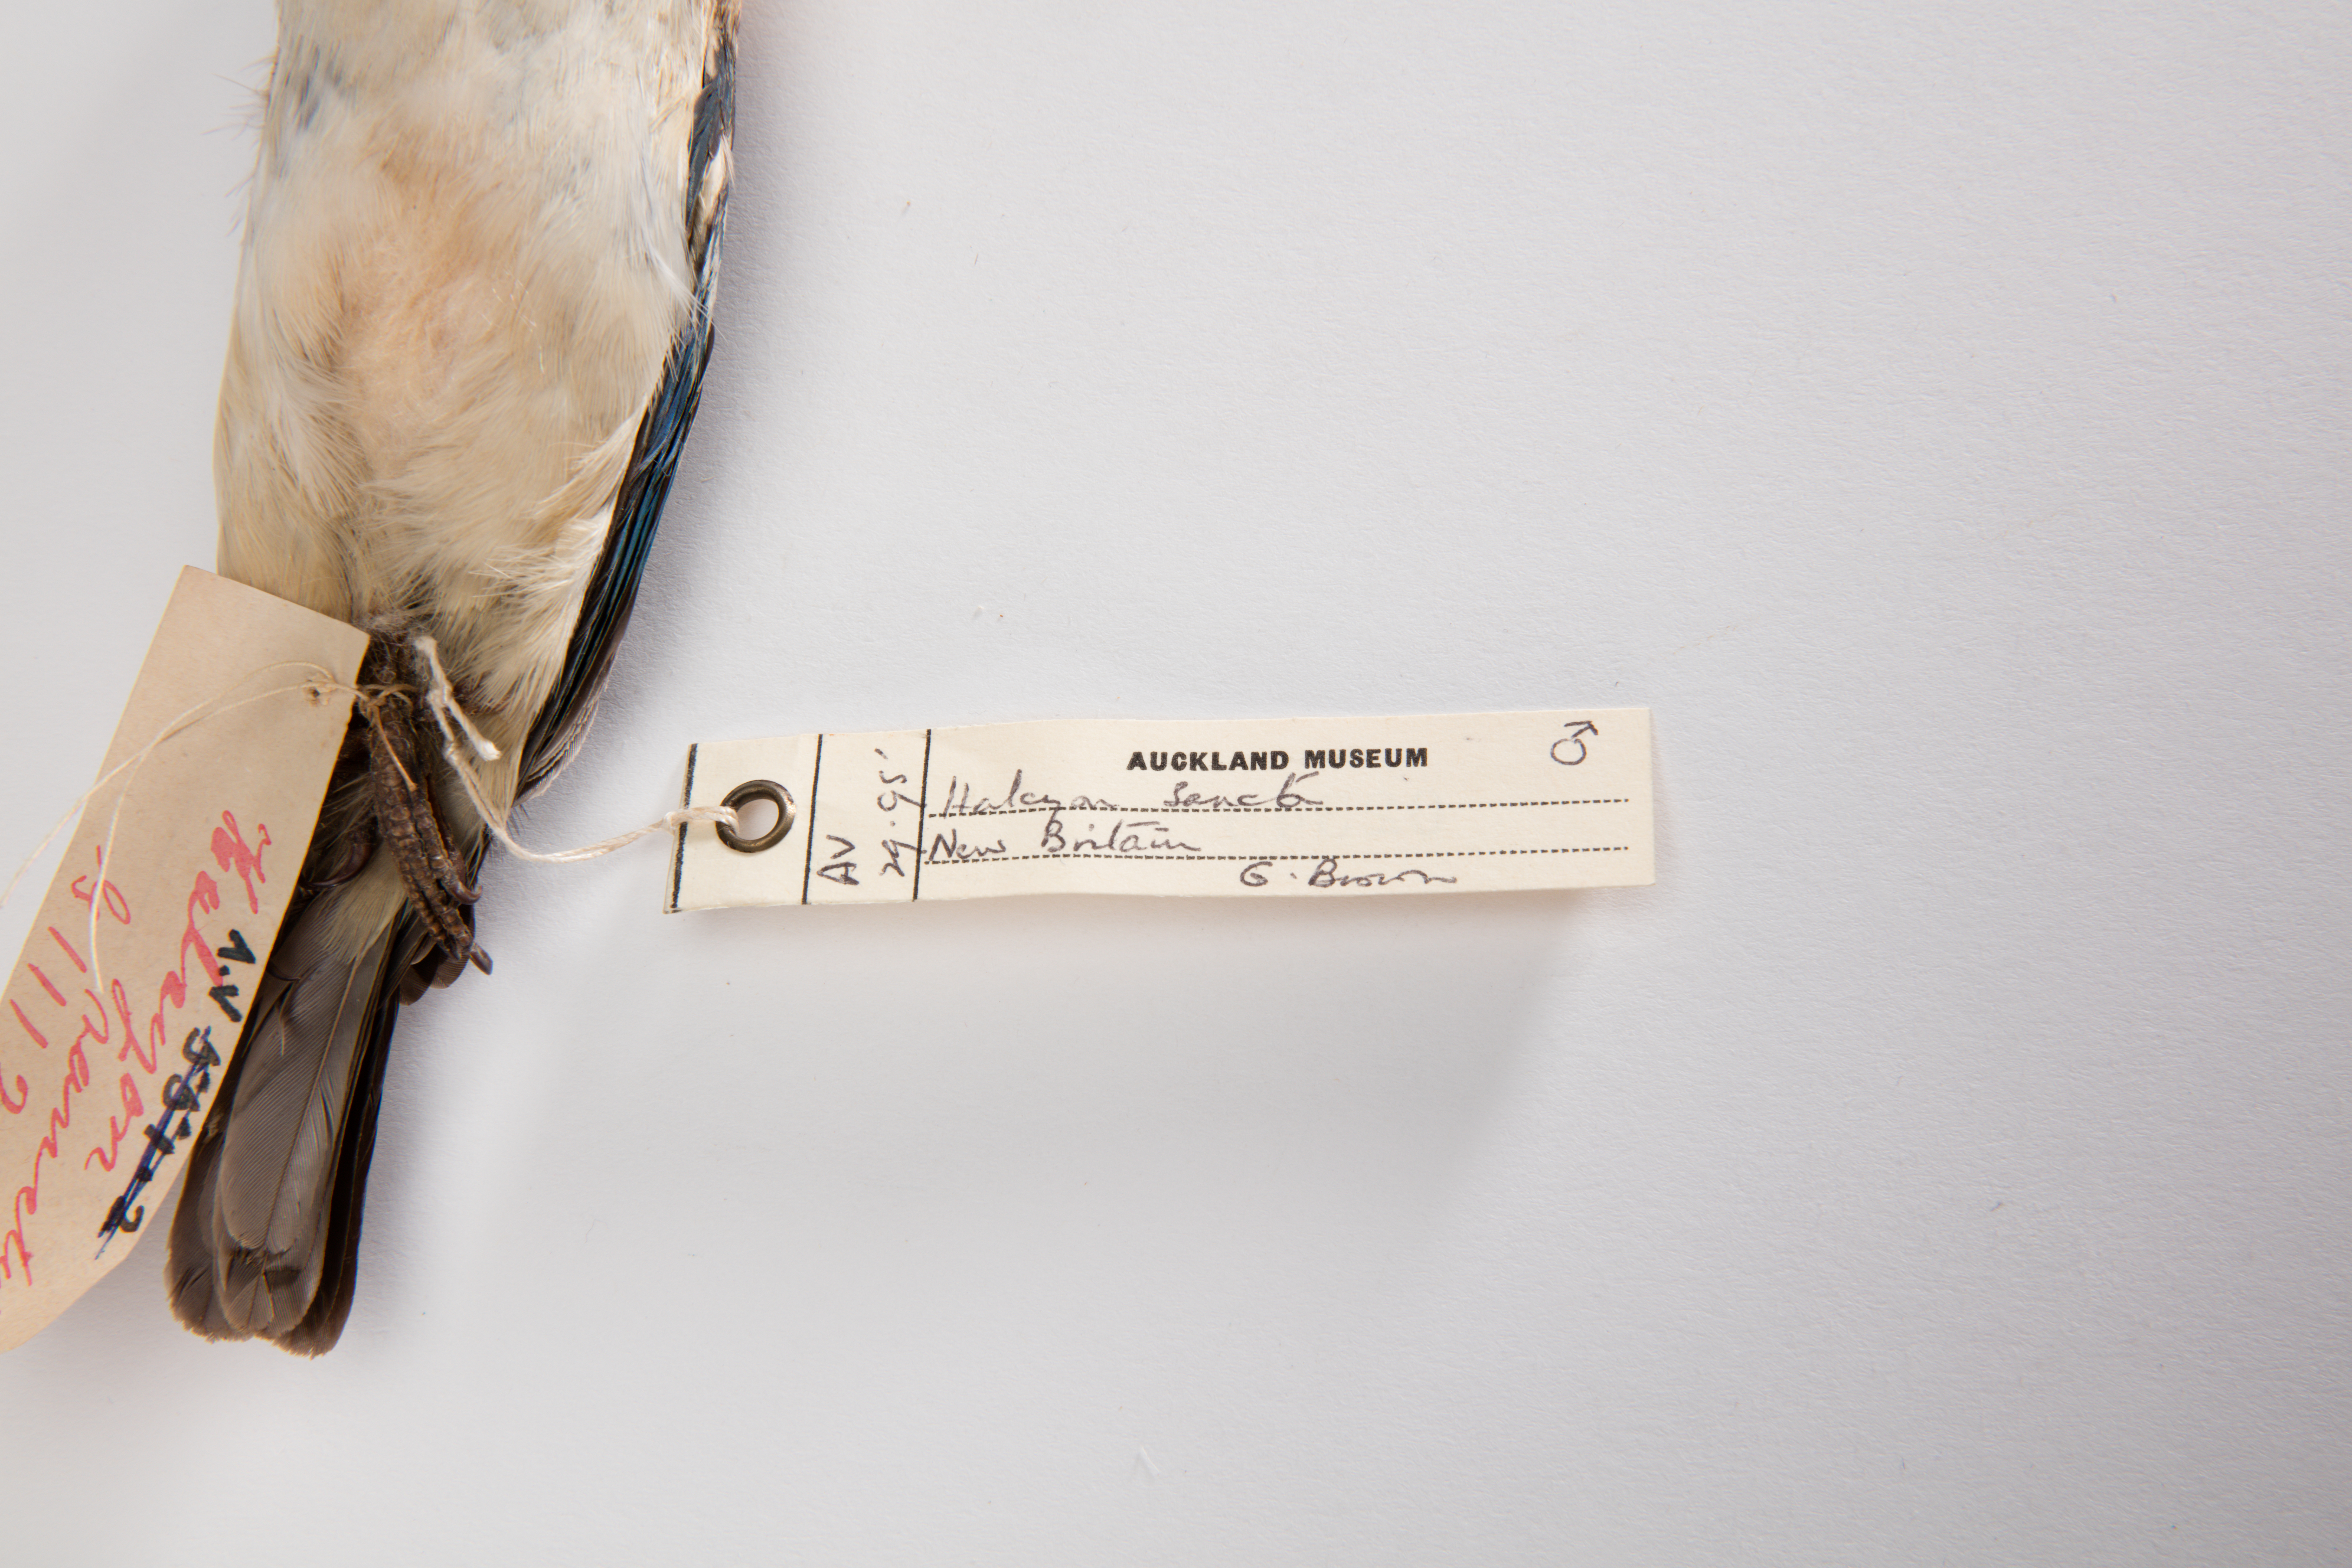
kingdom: Animalia
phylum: Chordata
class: Aves
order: Coraciiformes
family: Alcedinidae
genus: Todiramphus
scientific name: Todiramphus sanctus
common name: Sacred kingfisher
